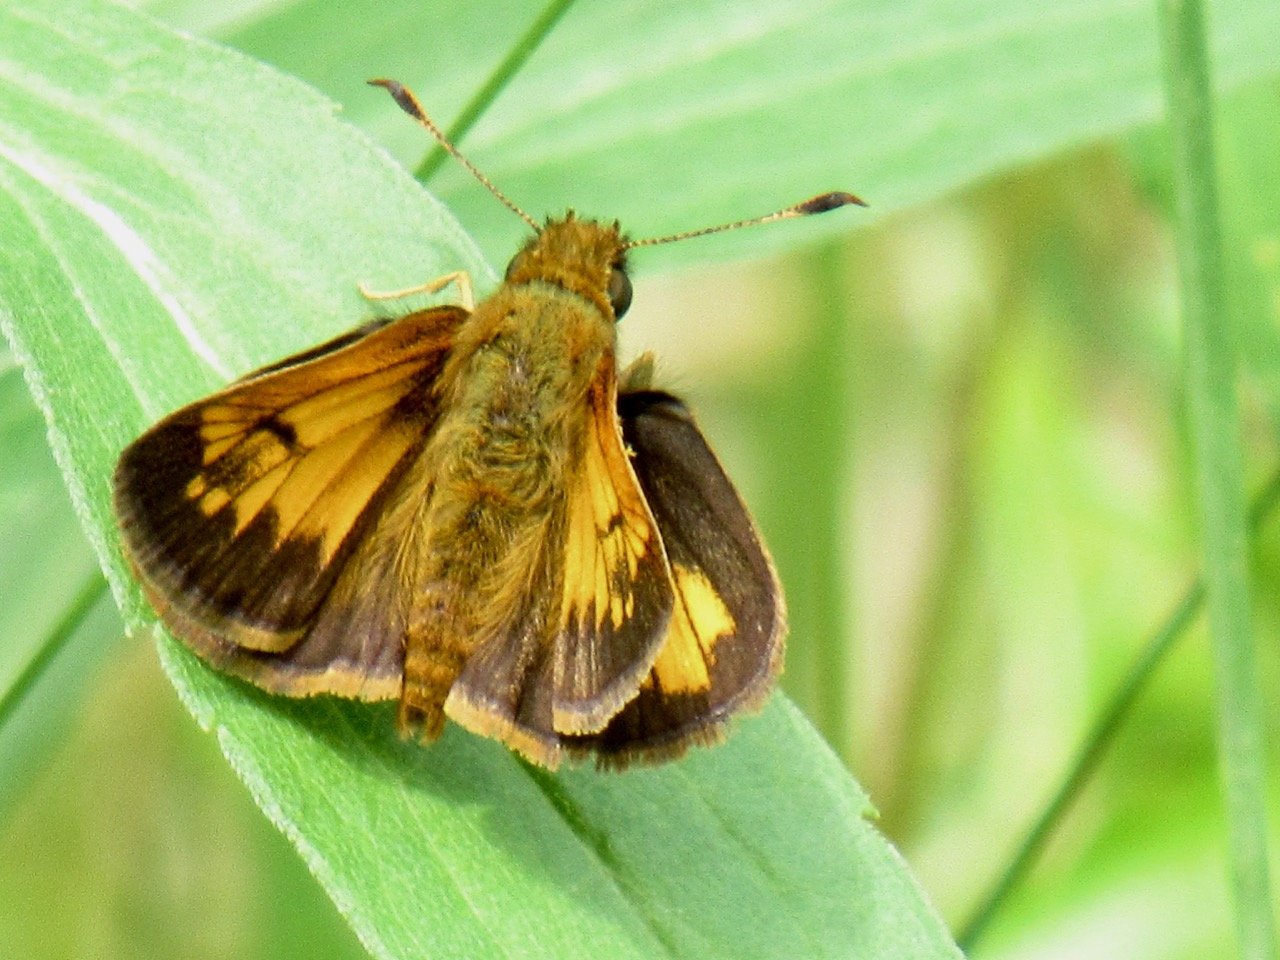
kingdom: Animalia
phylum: Arthropoda
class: Insecta
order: Lepidoptera
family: Hesperiidae
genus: Lon
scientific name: Lon hobomok
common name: Hobomok Skipper
